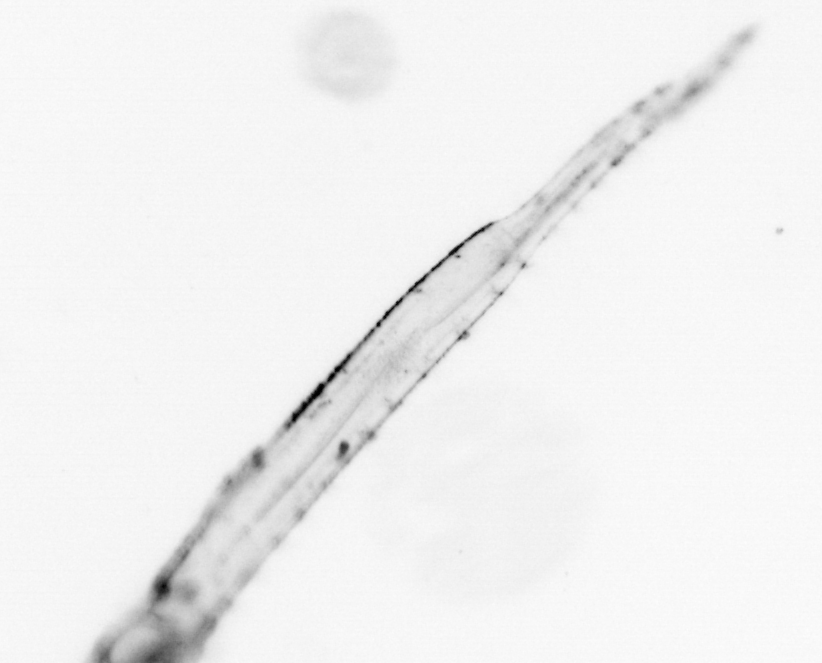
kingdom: Animalia
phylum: Chaetognatha
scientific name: Chaetognatha
